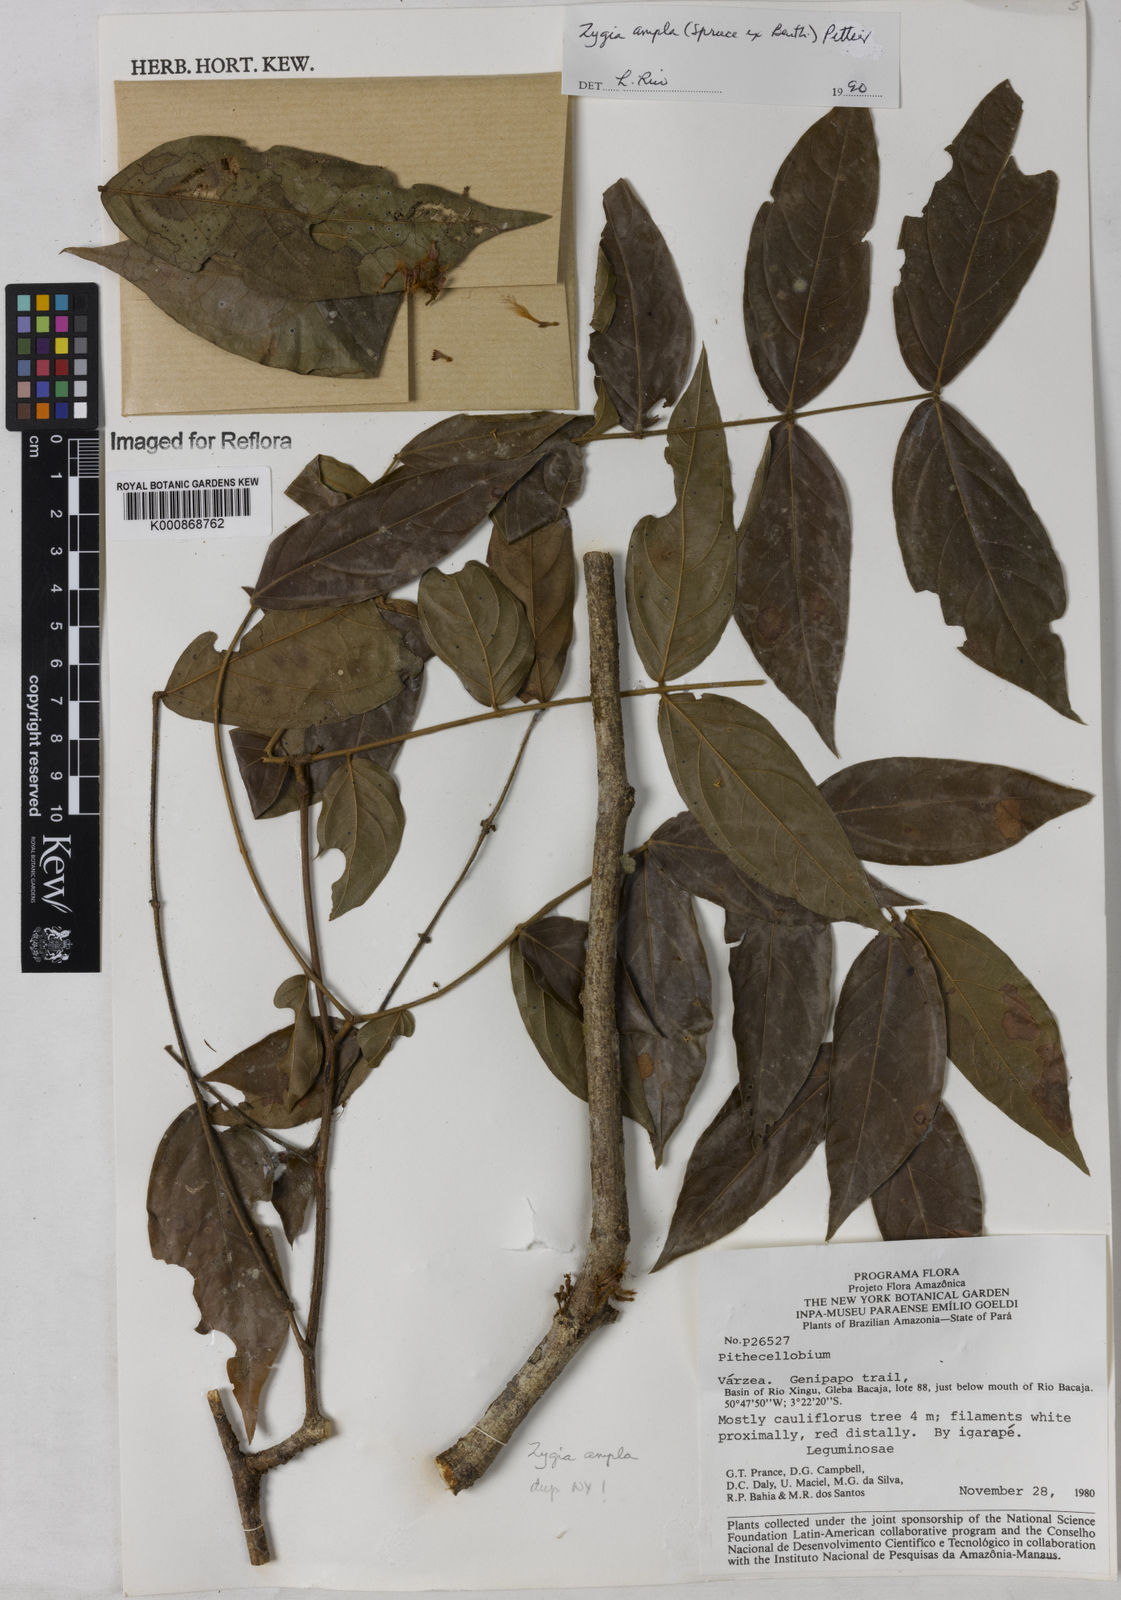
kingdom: Plantae
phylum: Tracheophyta
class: Magnoliopsida
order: Fabales
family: Fabaceae
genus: Zygia
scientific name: Zygia ampla
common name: Jarendeua de sapo
